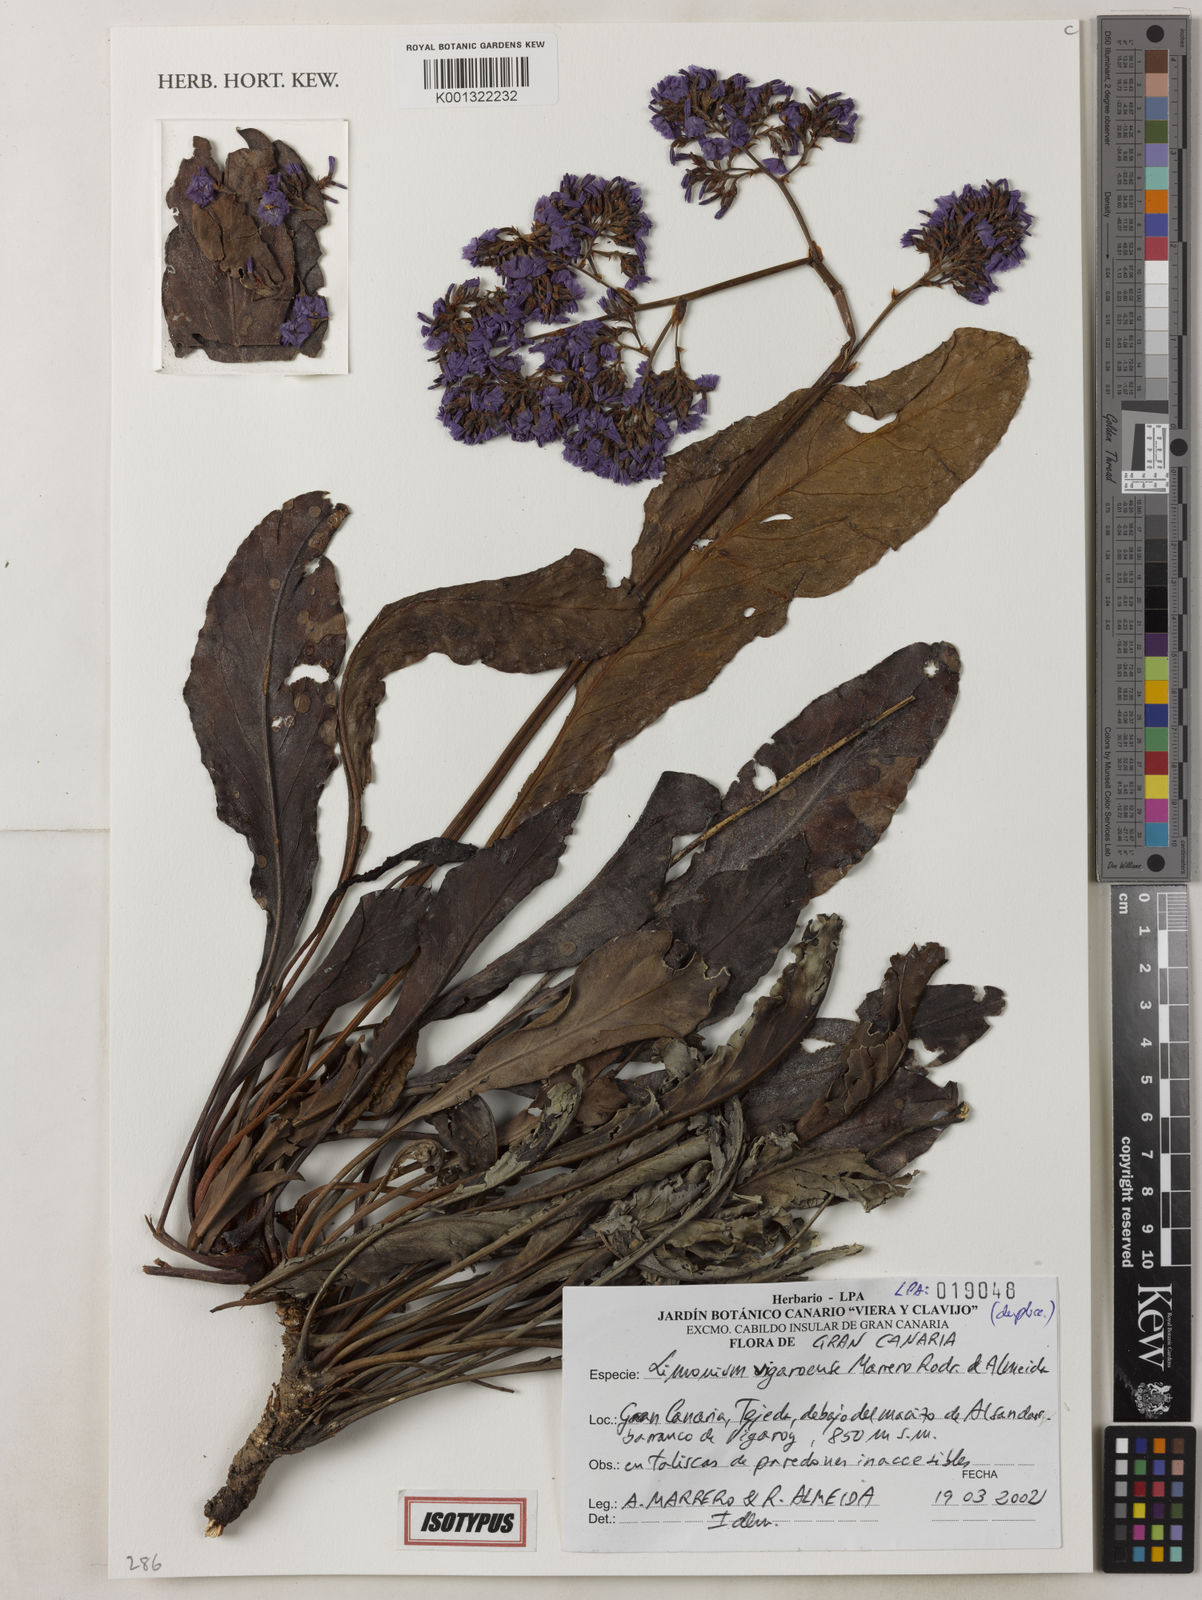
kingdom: Plantae
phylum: Tracheophyta
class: Magnoliopsida
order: Caryophyllales
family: Plumbaginaceae
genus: Limonium
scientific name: Limonium vigaroense
